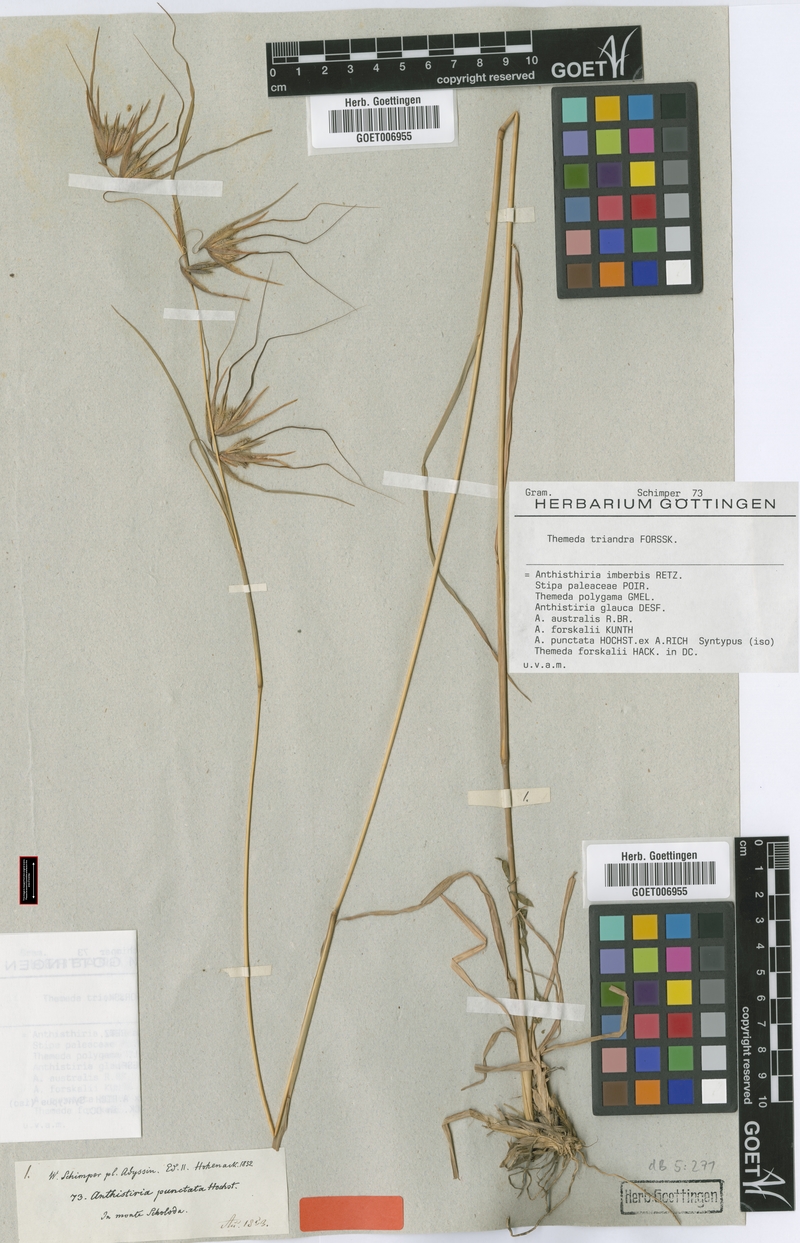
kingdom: Plantae
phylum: Tracheophyta
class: Liliopsida
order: Poales
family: Poaceae
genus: Themeda
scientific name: Themeda triandra
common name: Kangaroo grass
